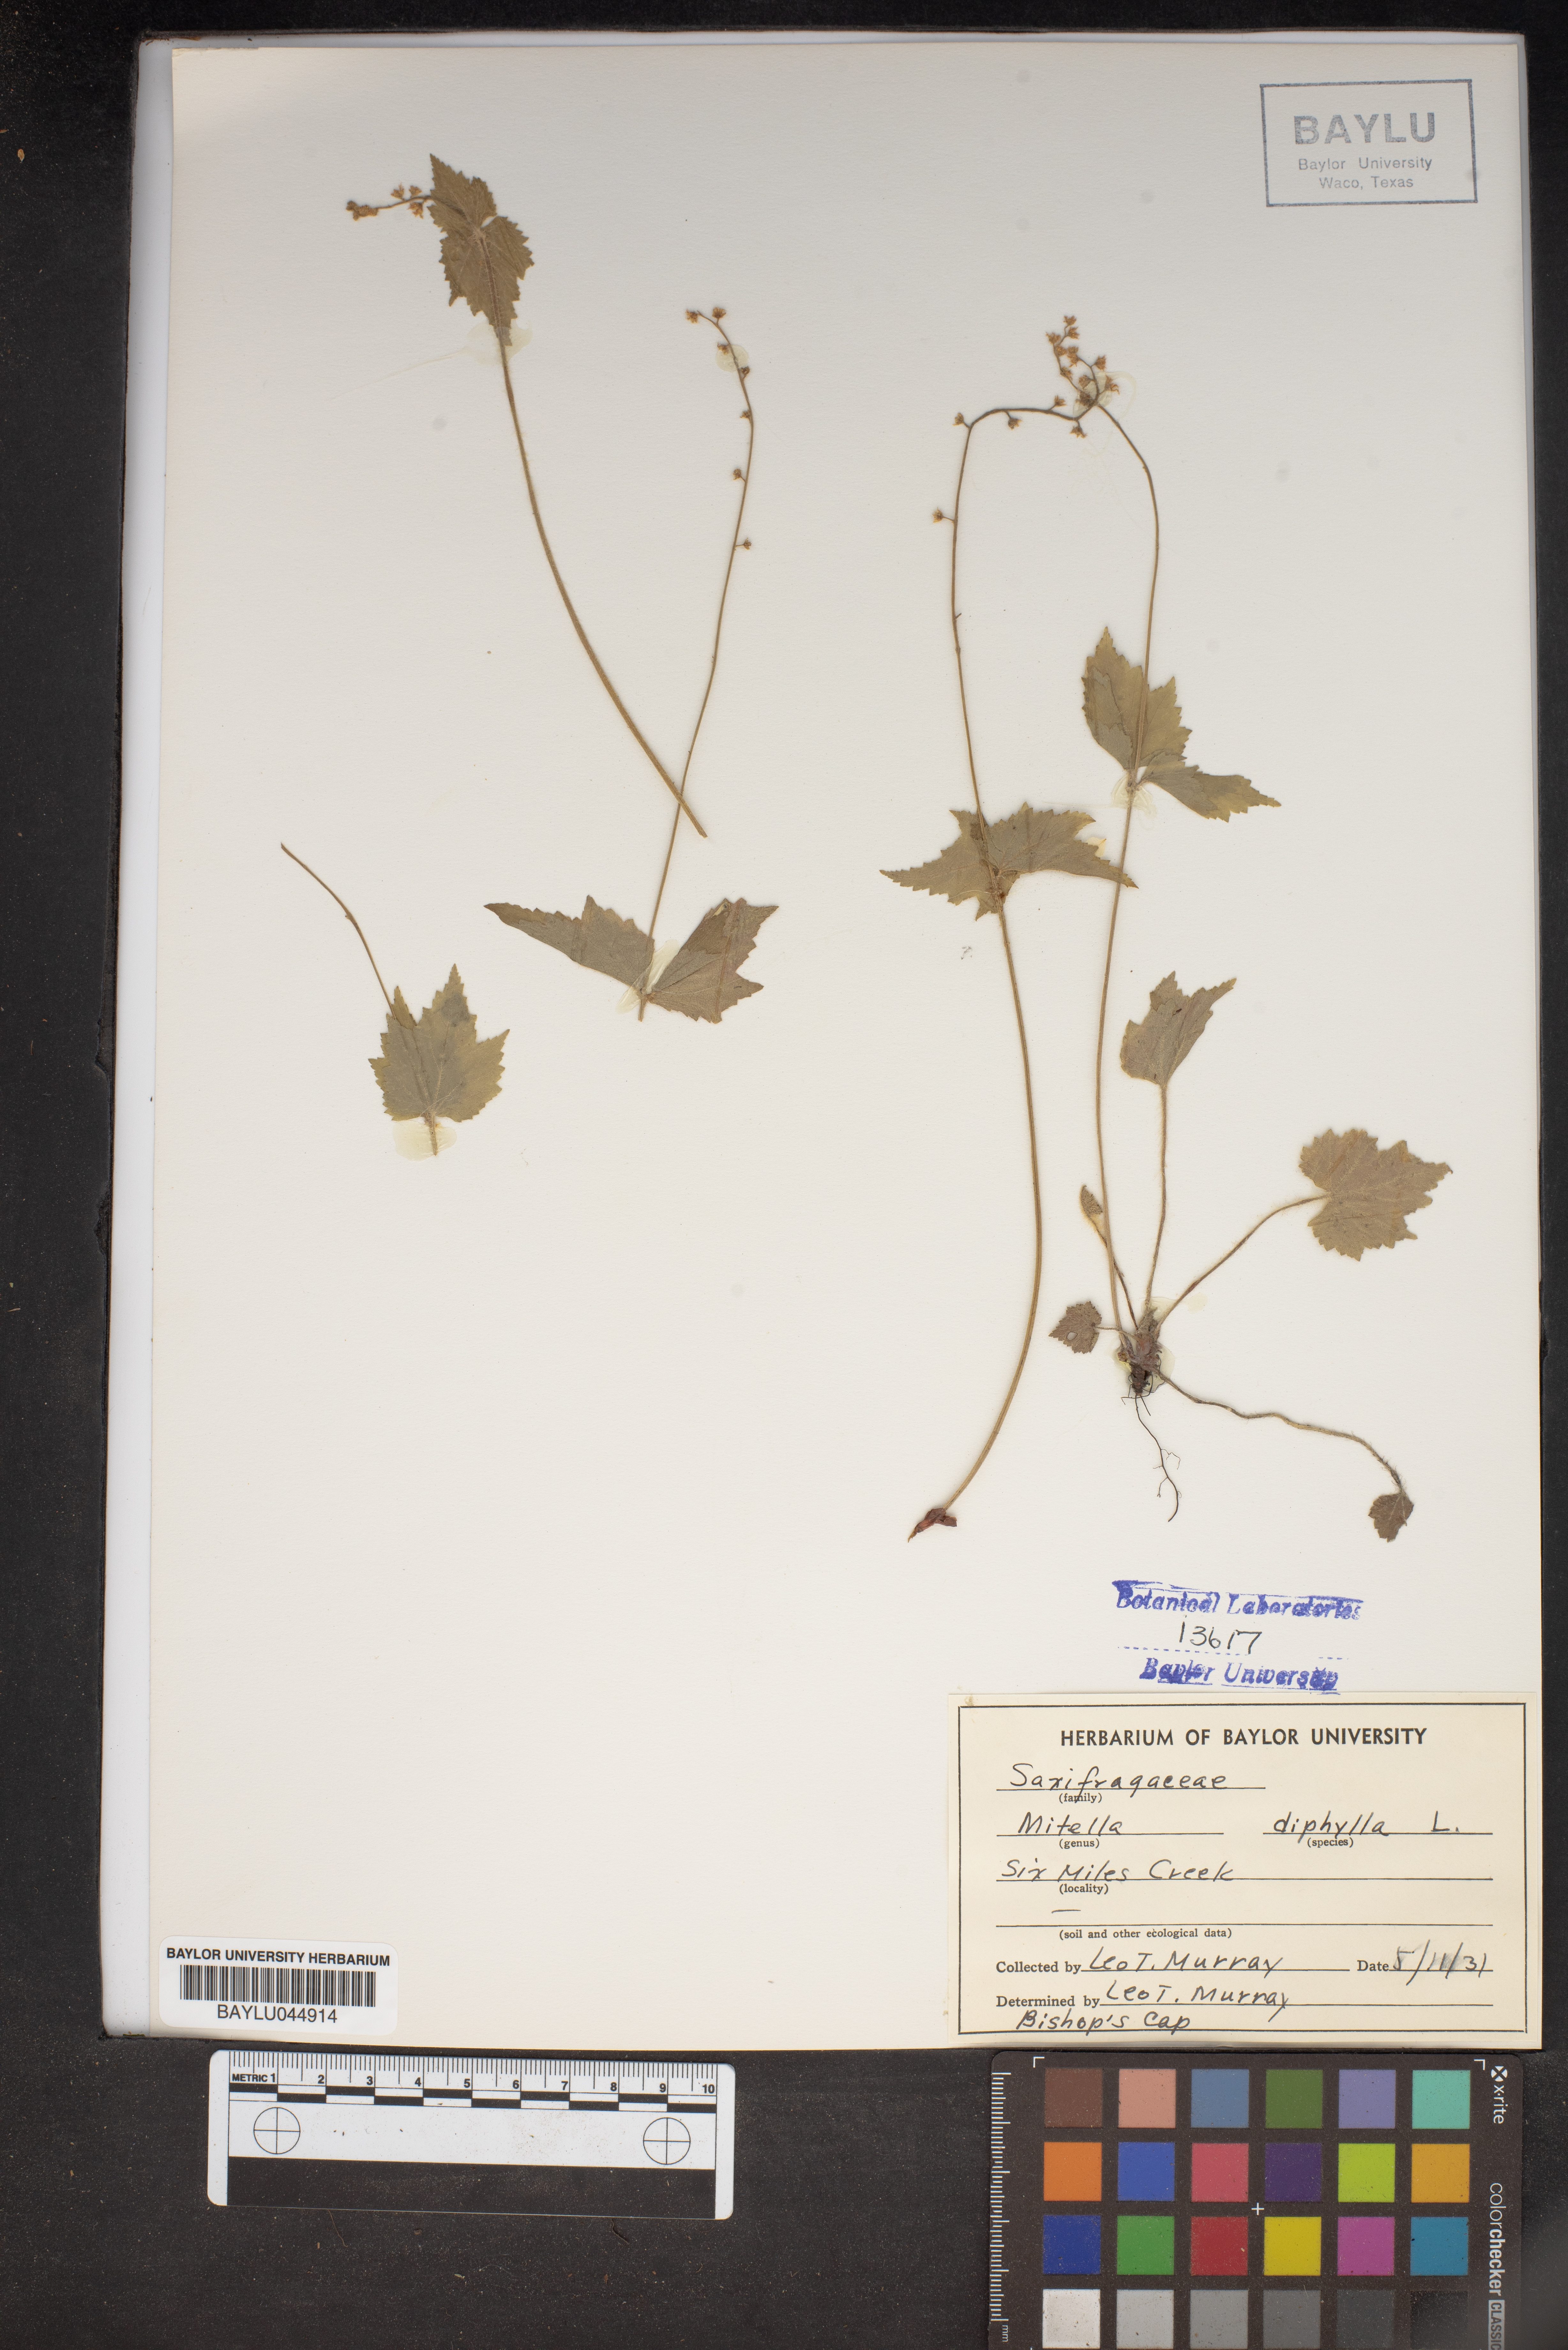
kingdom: Plantae
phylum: Tracheophyta
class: Magnoliopsida
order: Saxifragales
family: Saxifragaceae
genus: Mitella
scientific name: Mitella diphylla
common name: Coolwort
